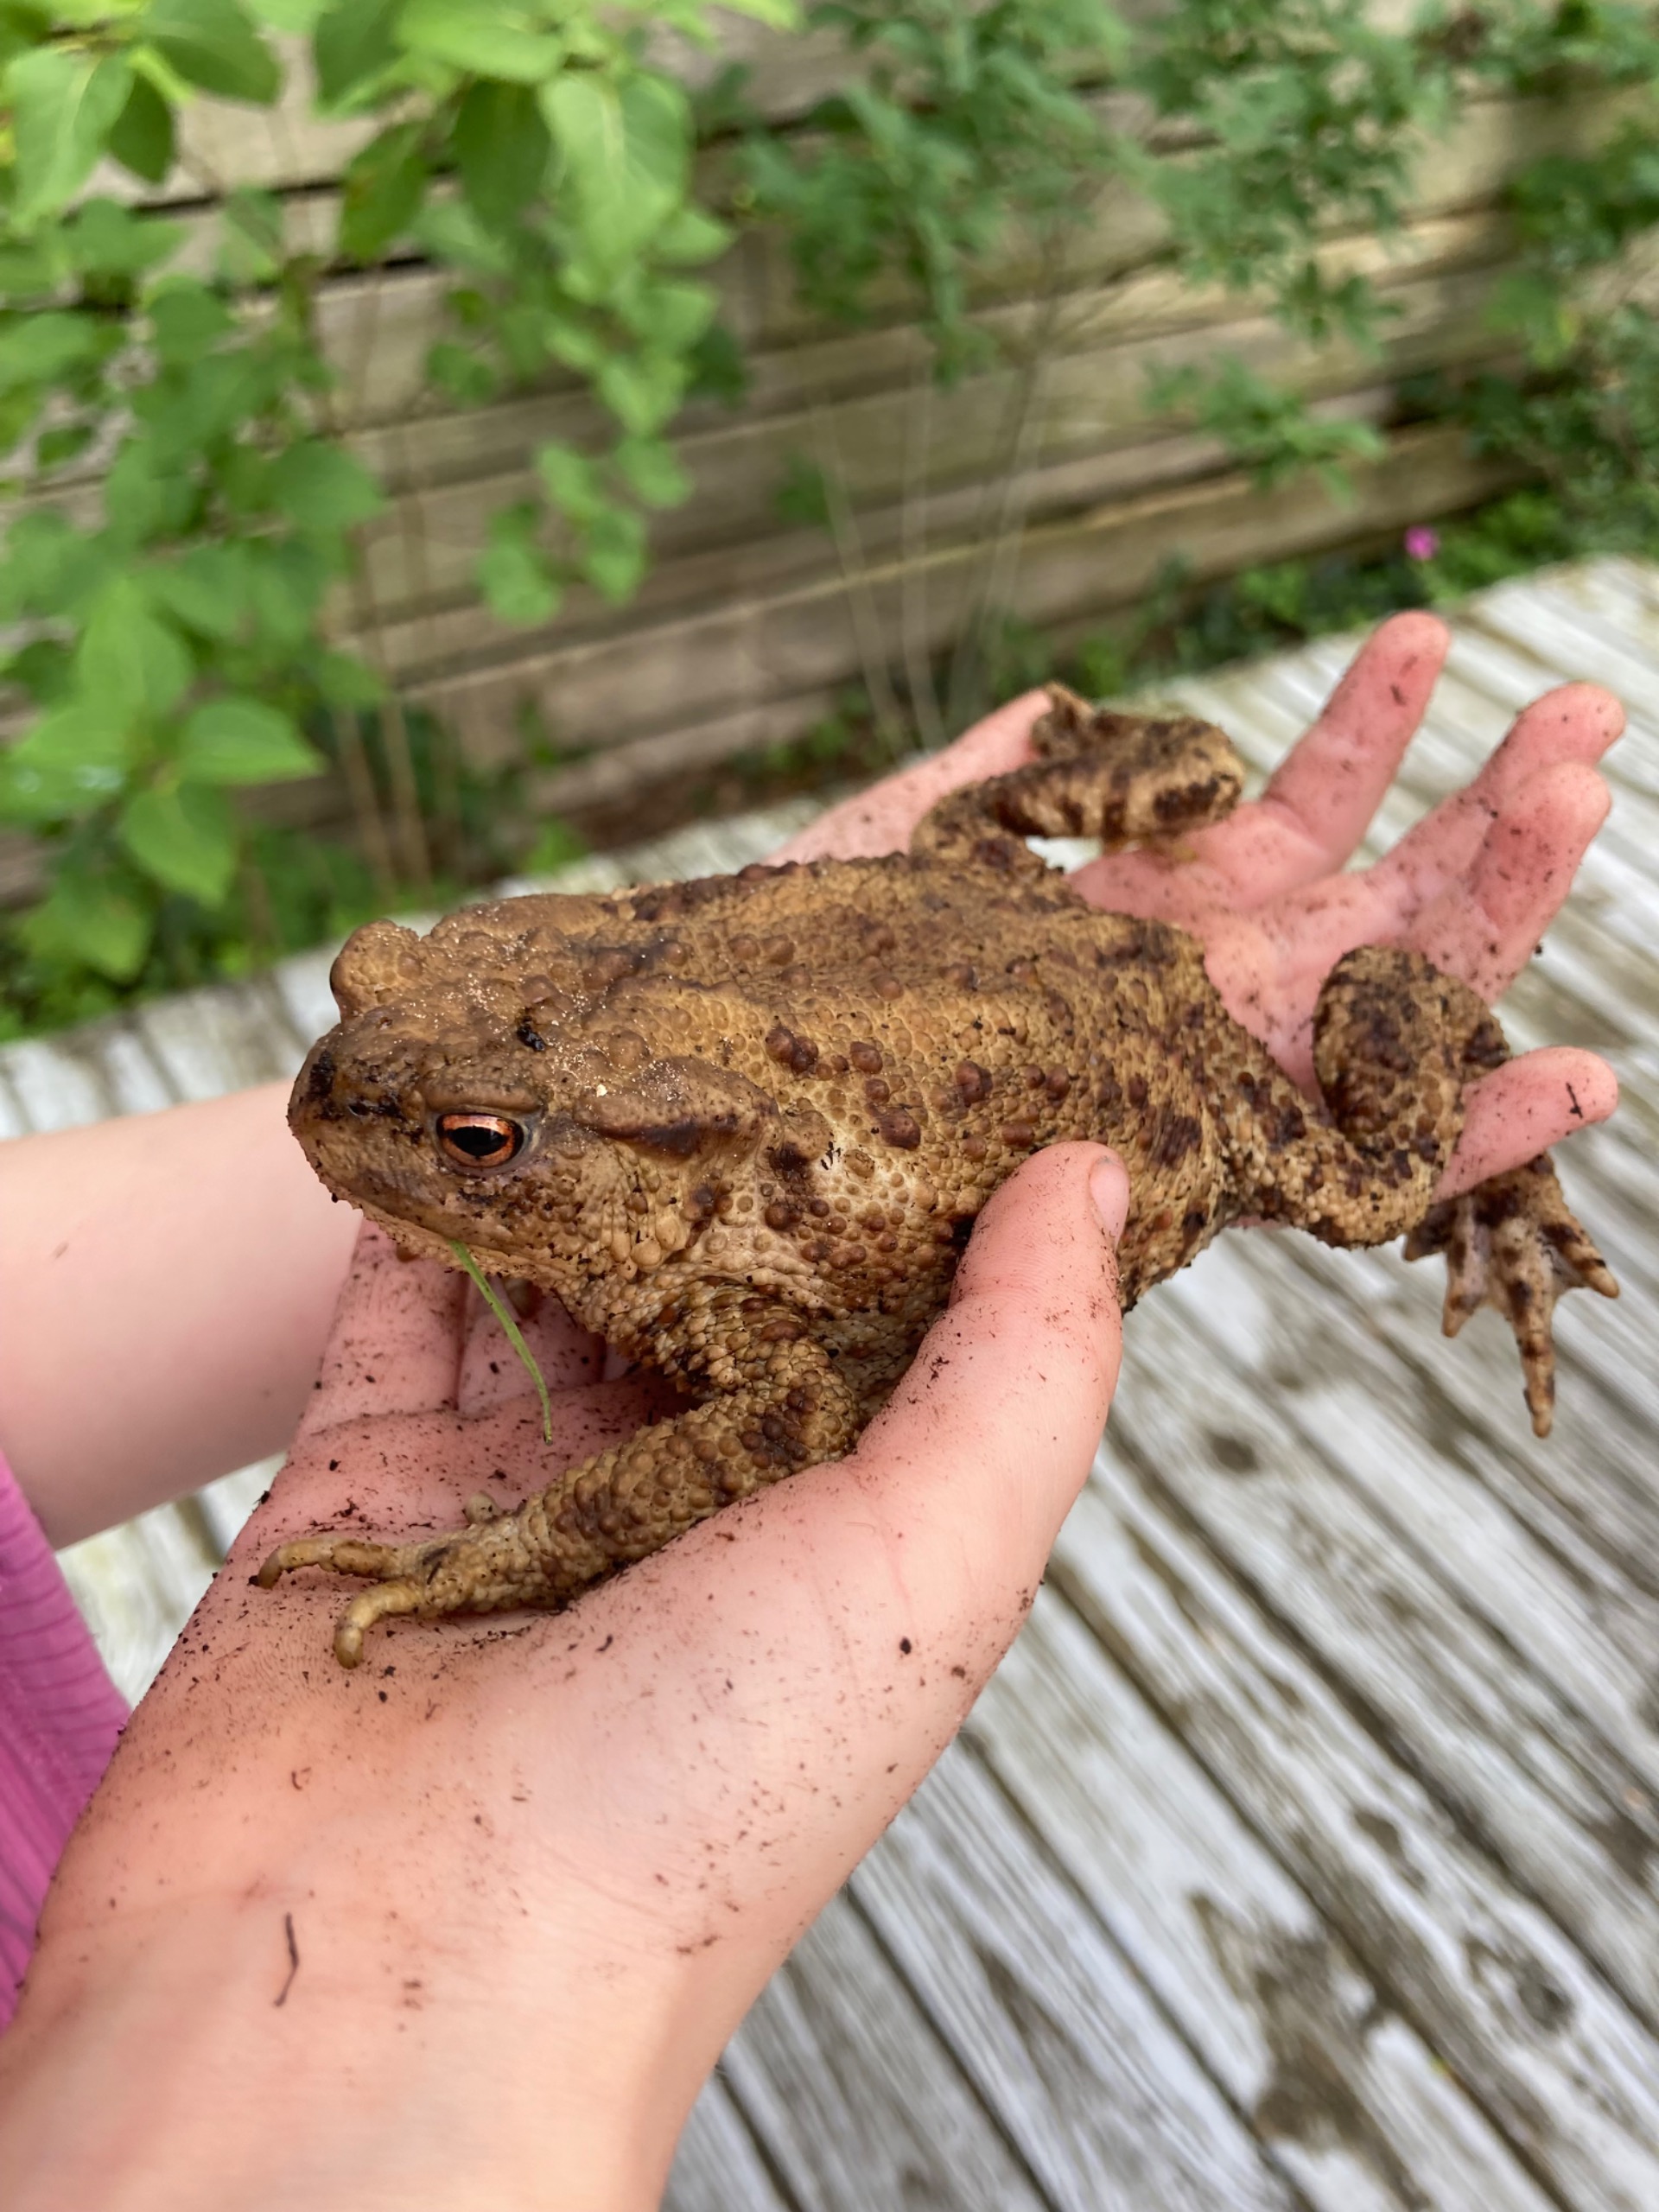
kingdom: Animalia
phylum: Chordata
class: Amphibia
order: Anura
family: Bufonidae
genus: Bufo
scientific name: Bufo bufo
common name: Skrubtudse
